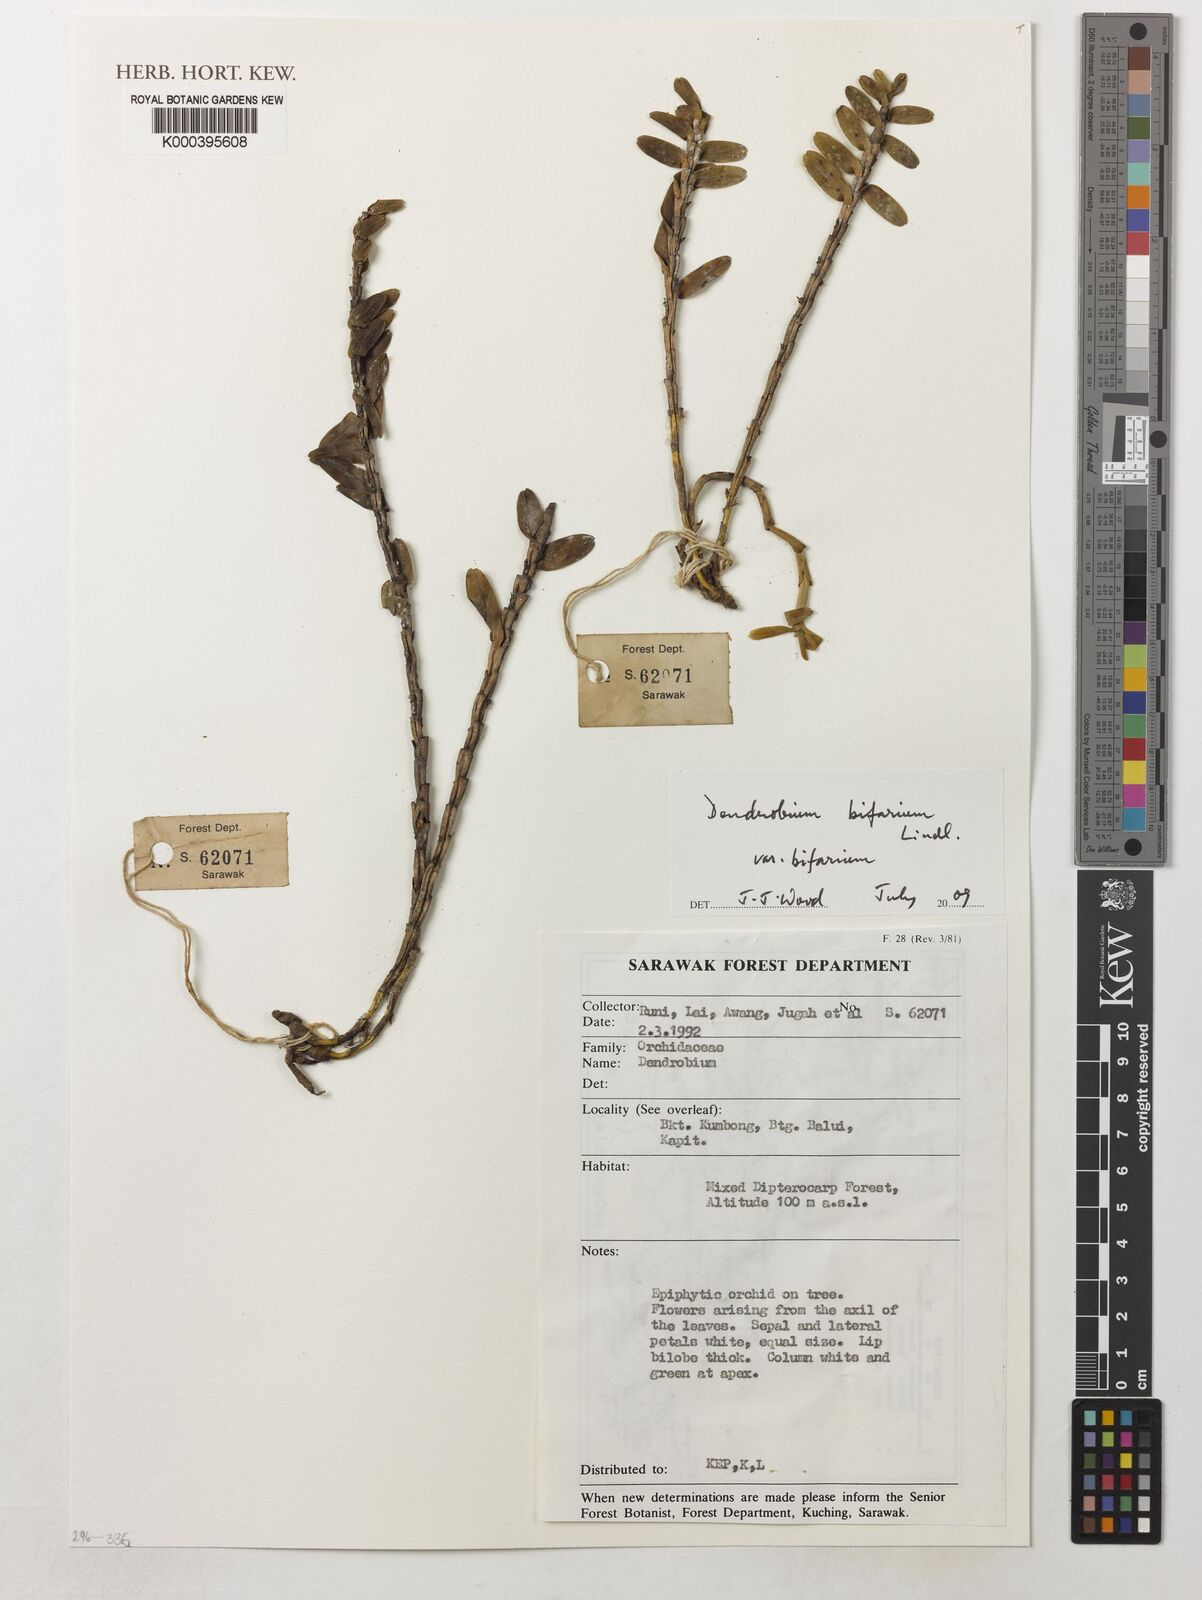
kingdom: Plantae
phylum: Tracheophyta
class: Liliopsida
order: Asparagales
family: Orchidaceae
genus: Appendicula
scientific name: Appendicula cornuta
